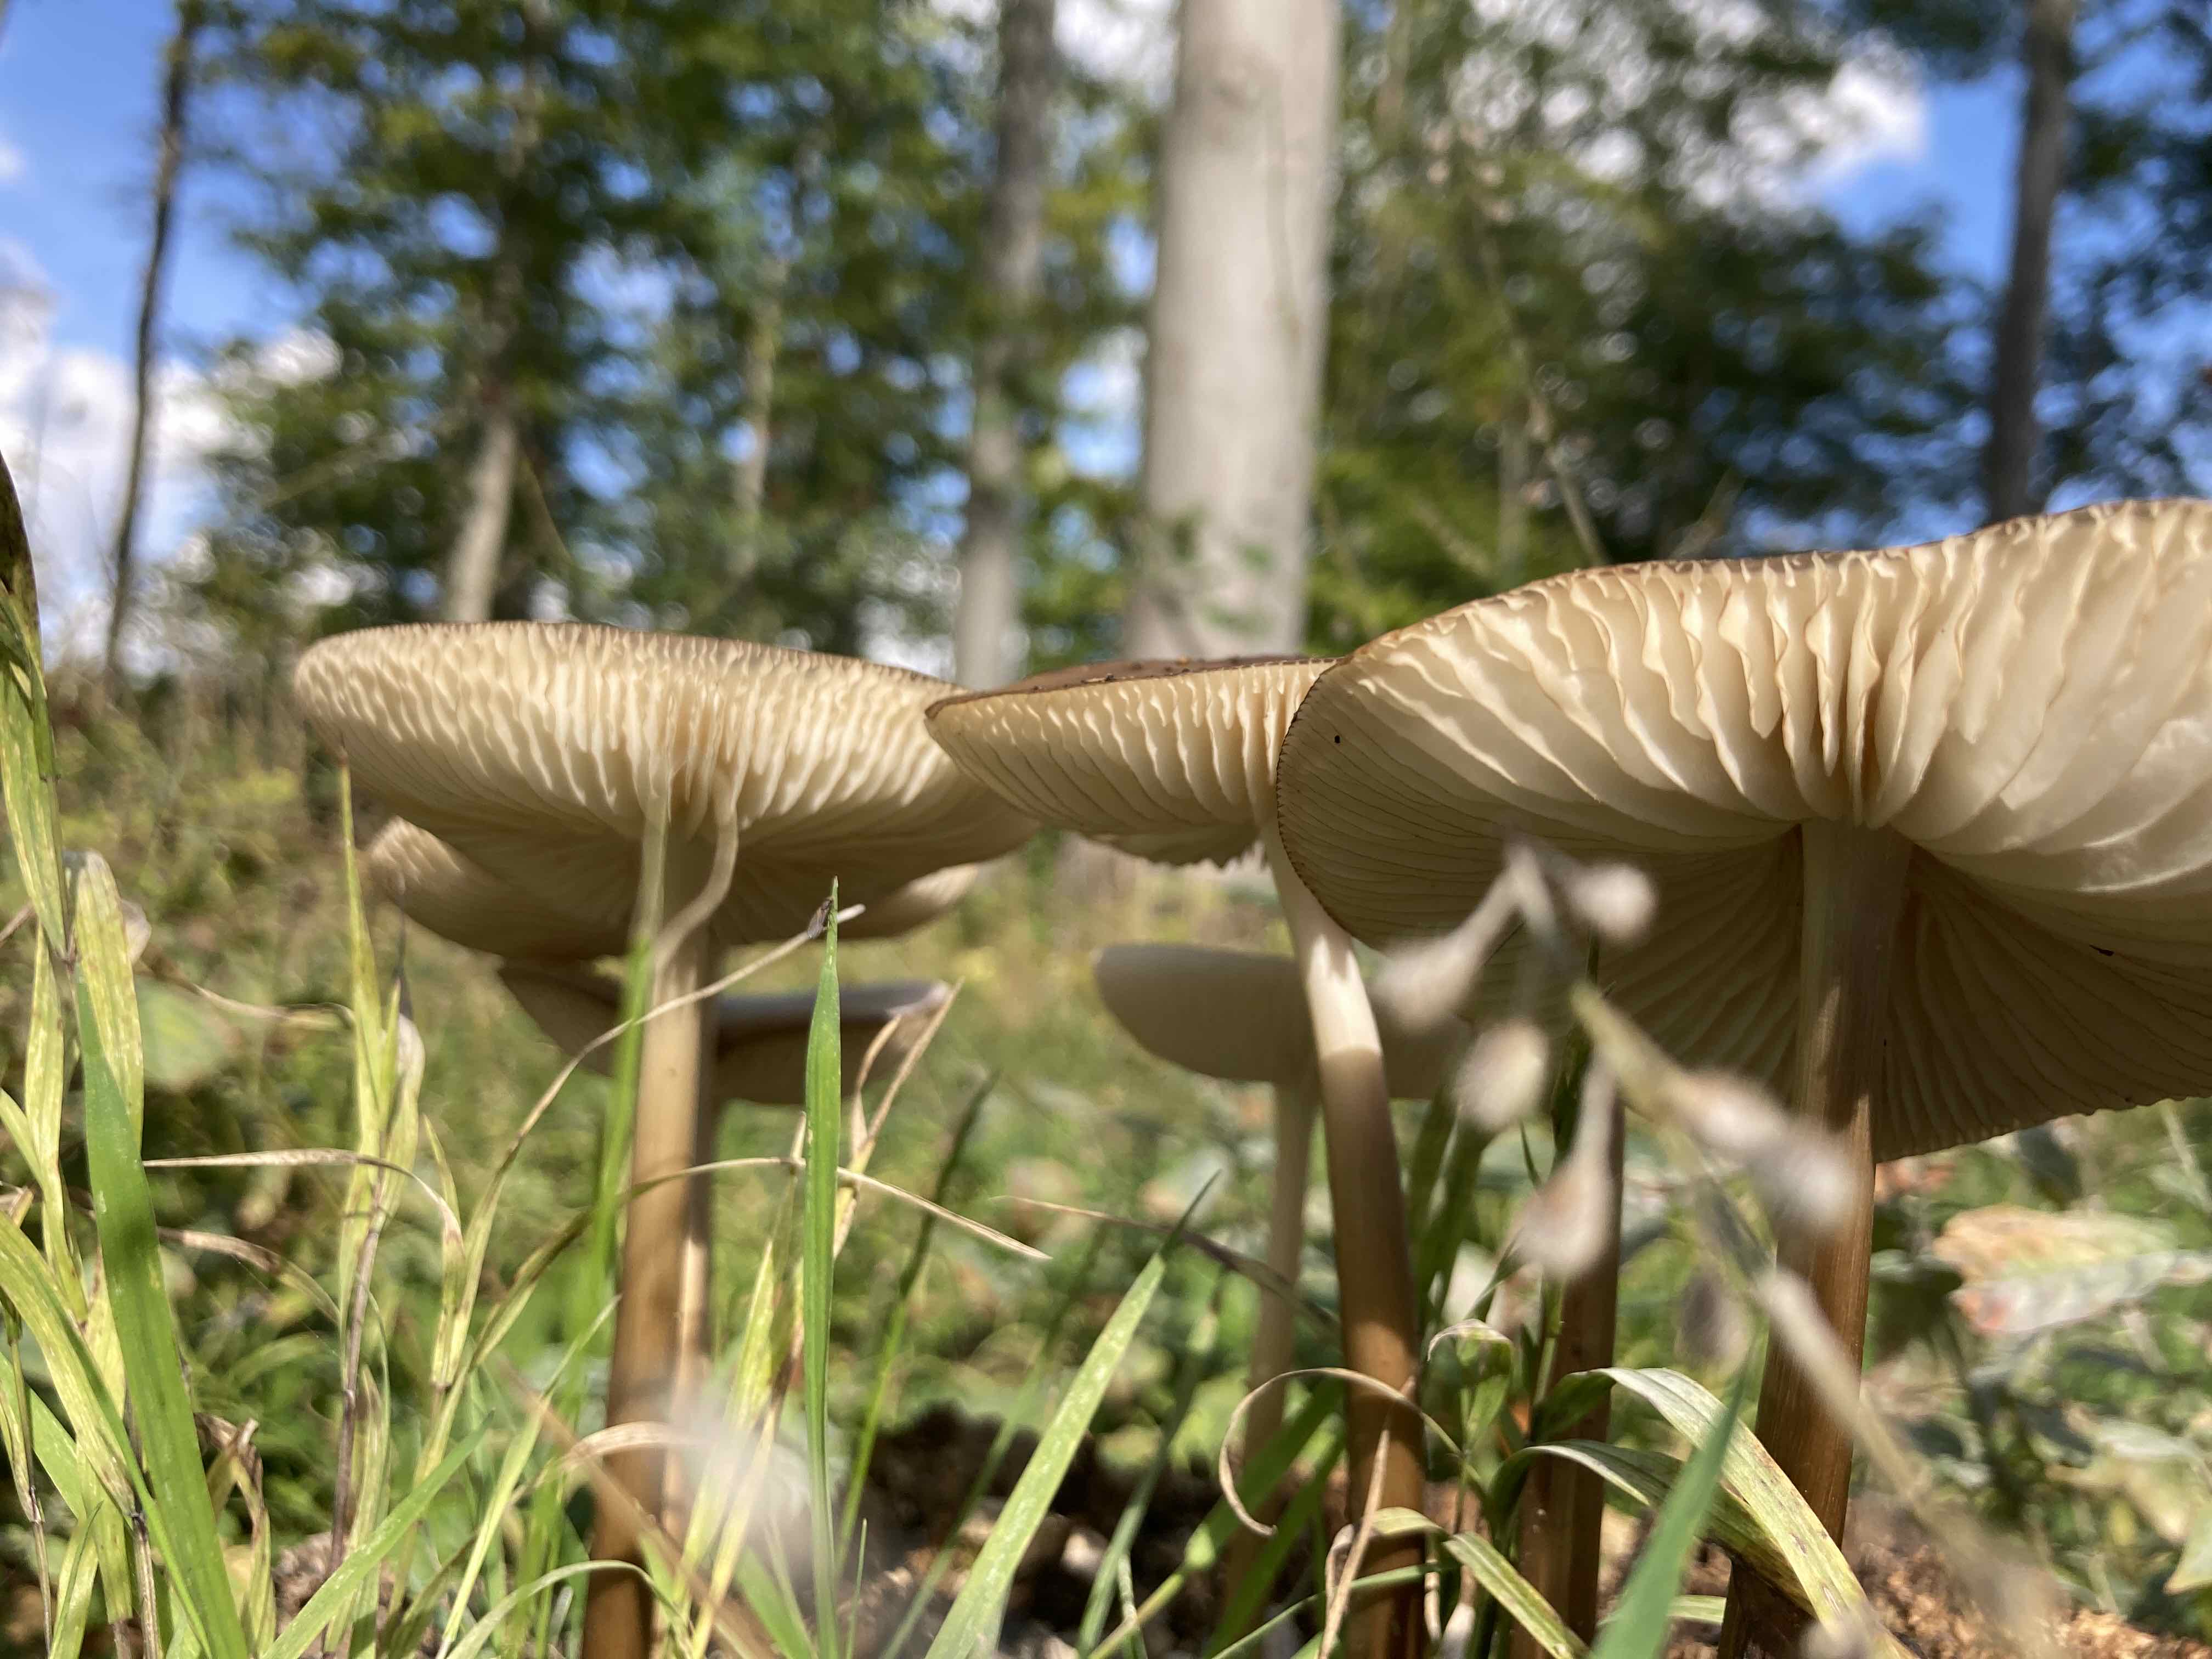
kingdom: Fungi
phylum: Basidiomycota
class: Agaricomycetes
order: Agaricales
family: Physalacriaceae
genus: Hymenopellis
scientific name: Hymenopellis radicata
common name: almindelig pælerodshat
